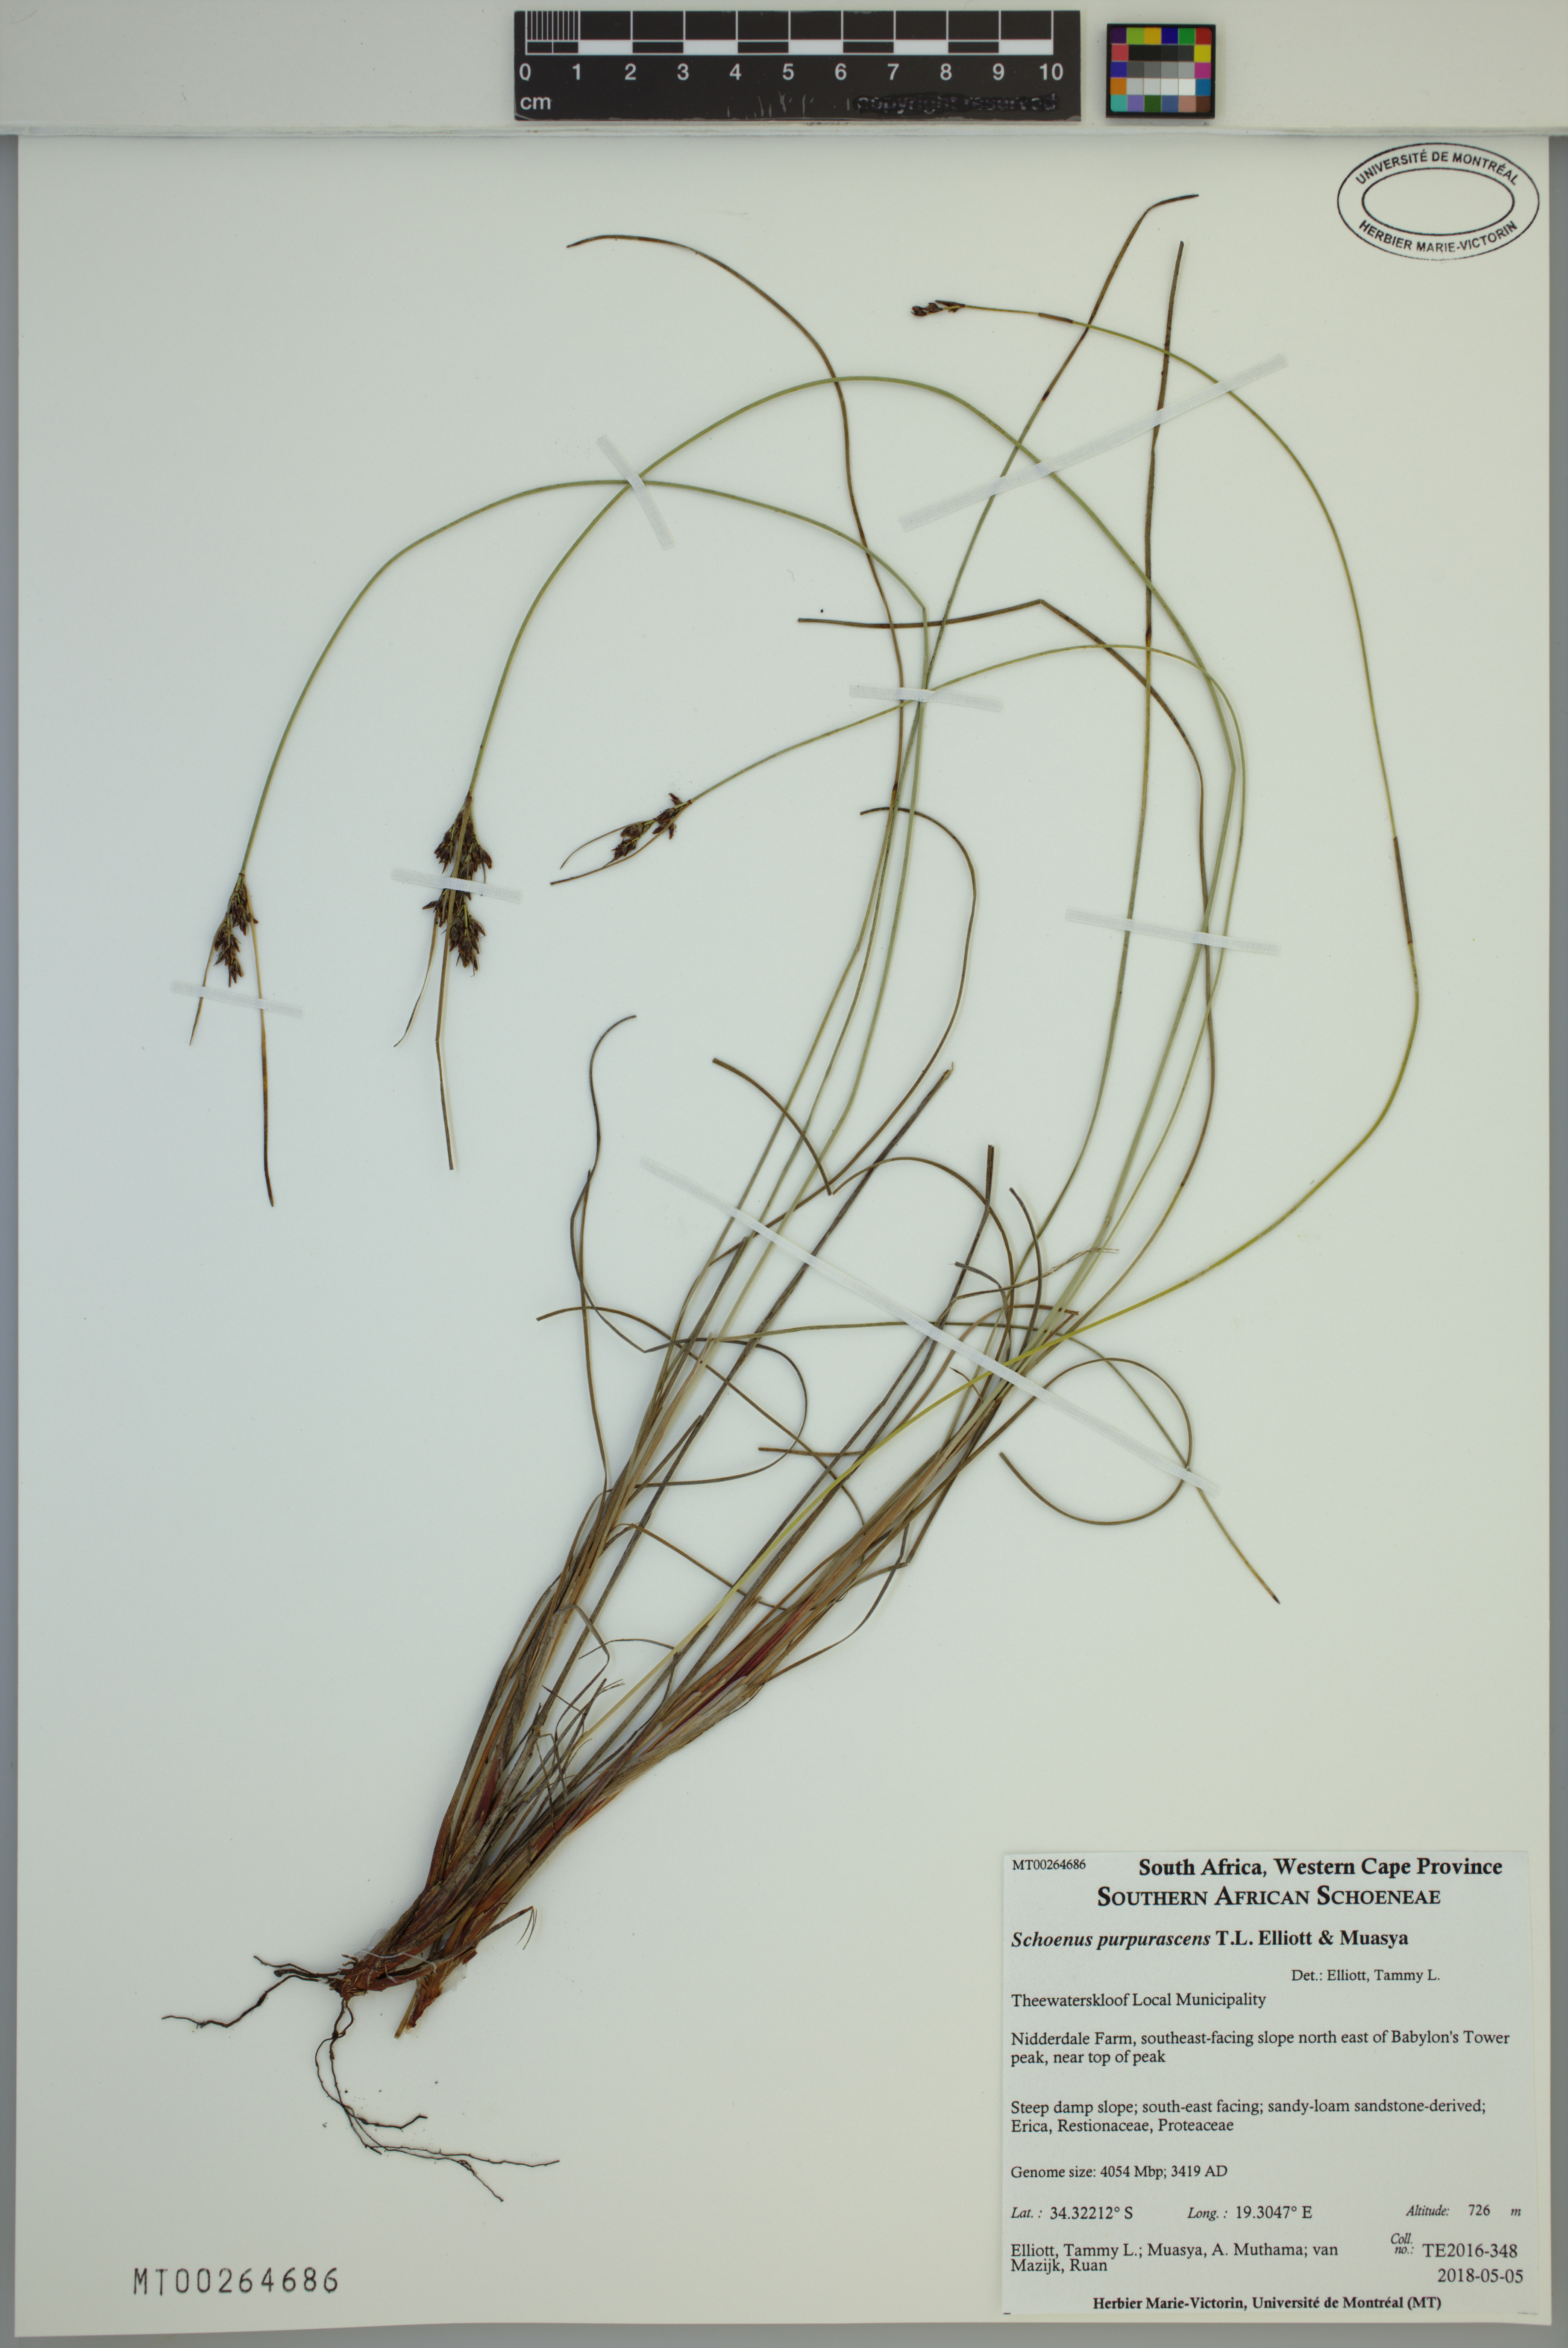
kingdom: Plantae
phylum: Tracheophyta
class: Liliopsida
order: Poales
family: Cyperaceae
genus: Schoenus
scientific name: Schoenus purpurascens
